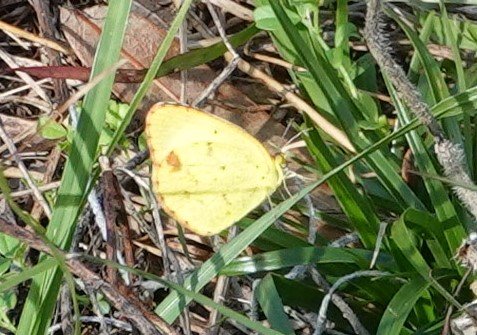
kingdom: Animalia
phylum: Arthropoda
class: Insecta
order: Lepidoptera
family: Pieridae
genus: Pyrisitia
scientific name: Pyrisitia lisa
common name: Little Yellow
